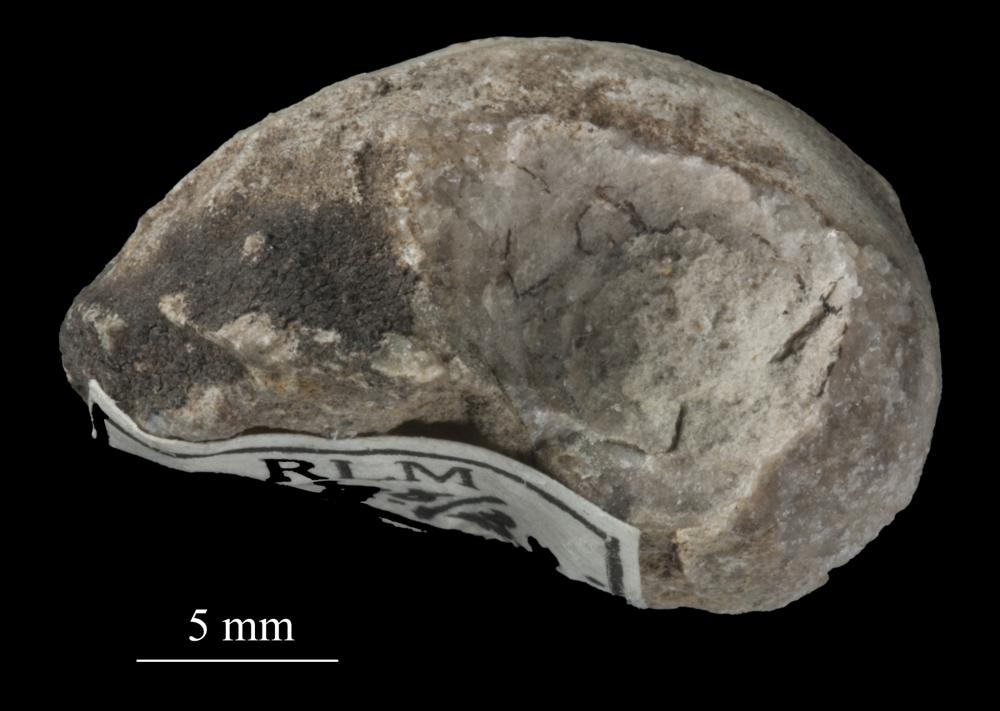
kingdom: Animalia
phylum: Mollusca
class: Gastropoda
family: Bucaniidae
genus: Salpingostoma
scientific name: Salpingostoma Bellerophon megalostoma
